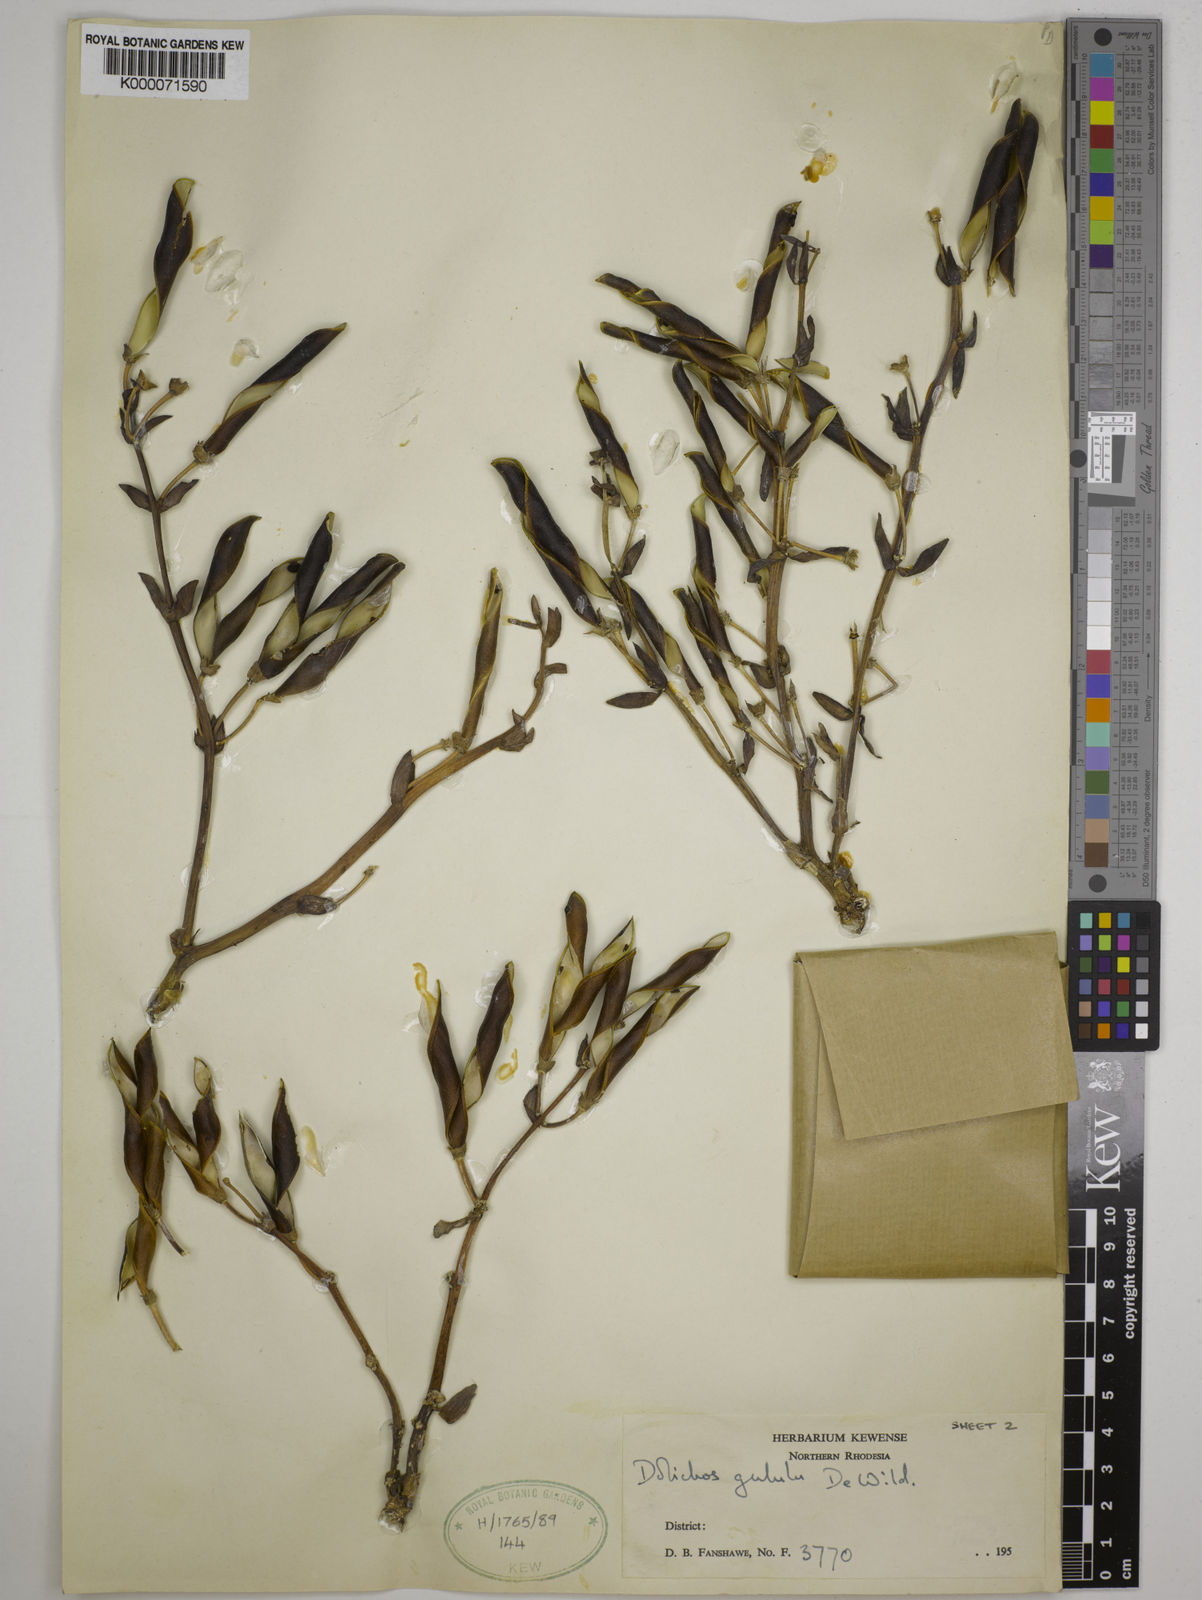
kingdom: Plantae
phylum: Tracheophyta
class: Magnoliopsida
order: Fabales
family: Fabaceae
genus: Dolichos
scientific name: Dolichos gululu
